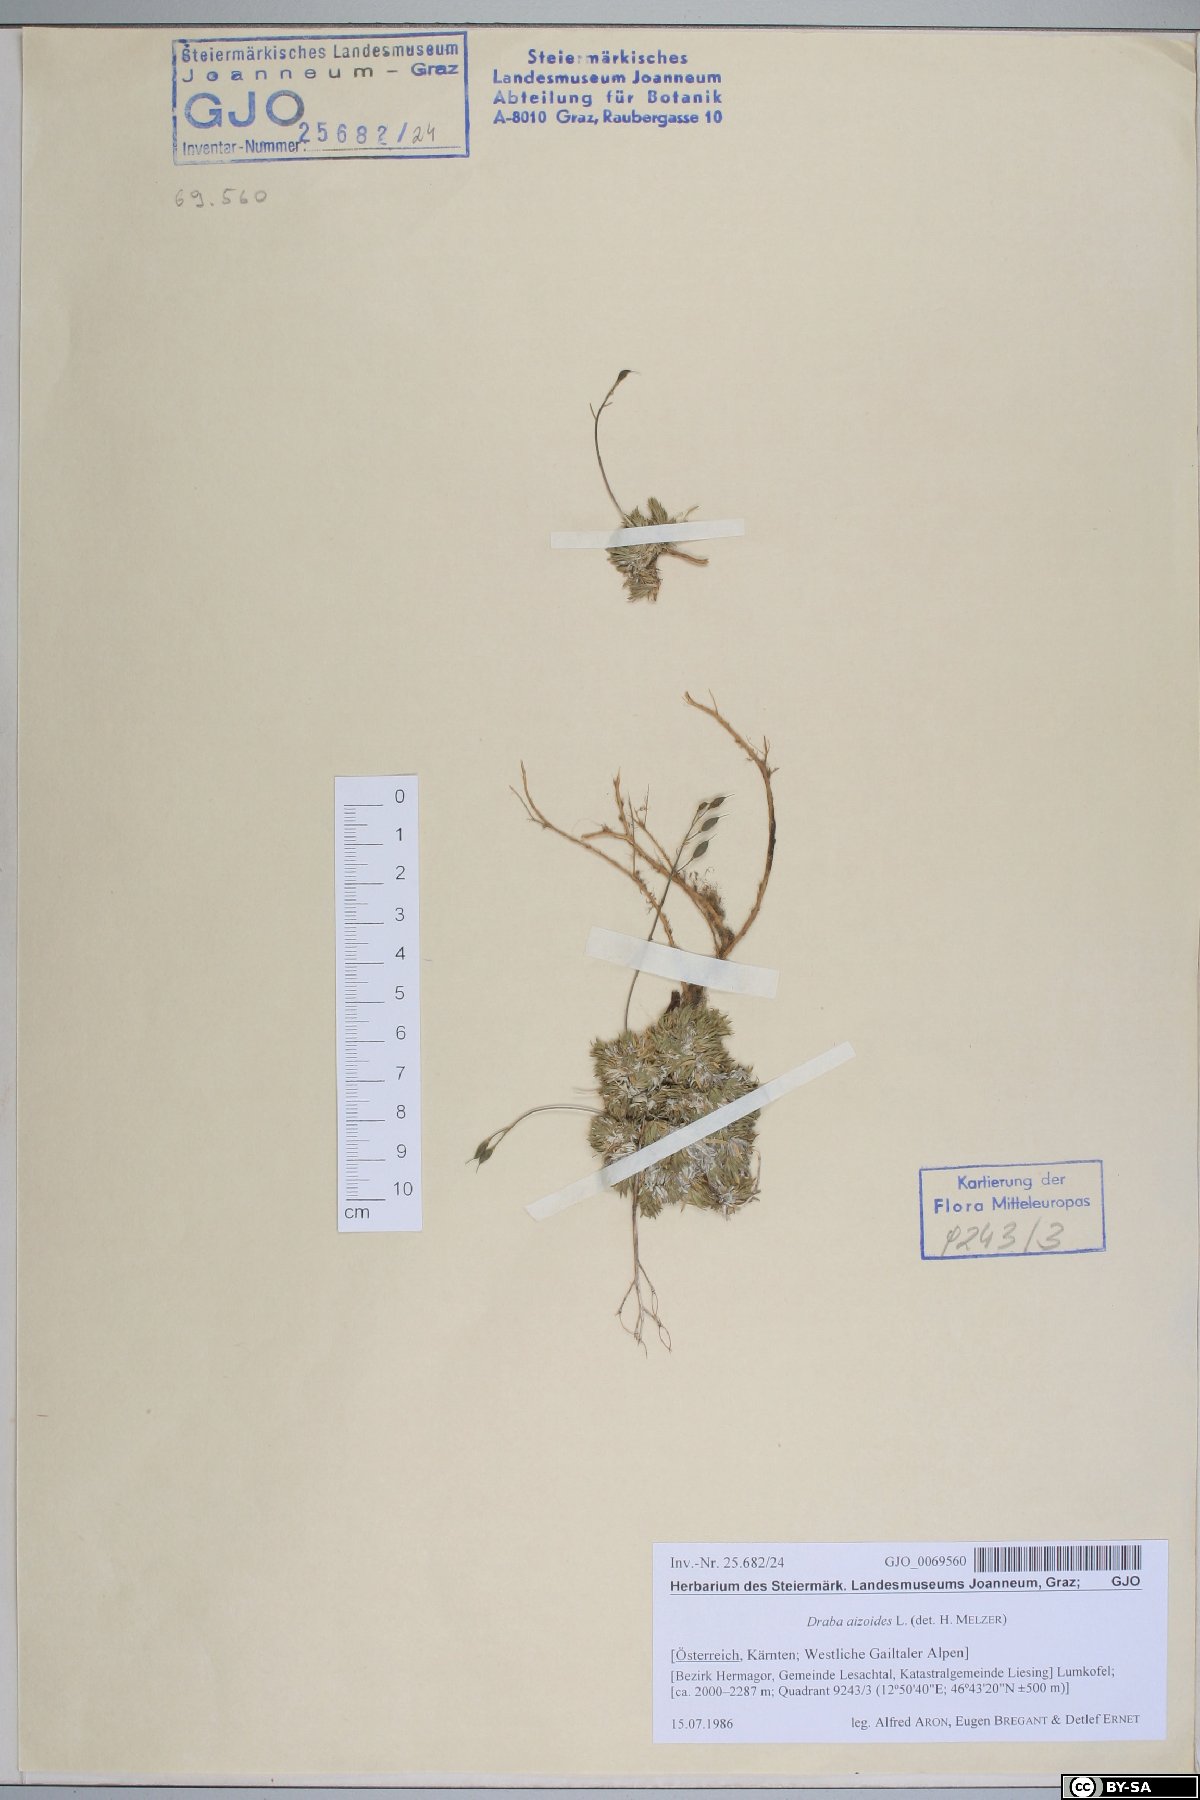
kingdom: Plantae
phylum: Tracheophyta
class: Magnoliopsida
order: Brassicales
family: Brassicaceae
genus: Draba
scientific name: Draba aizoides
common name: Yellow whitlowgrass
